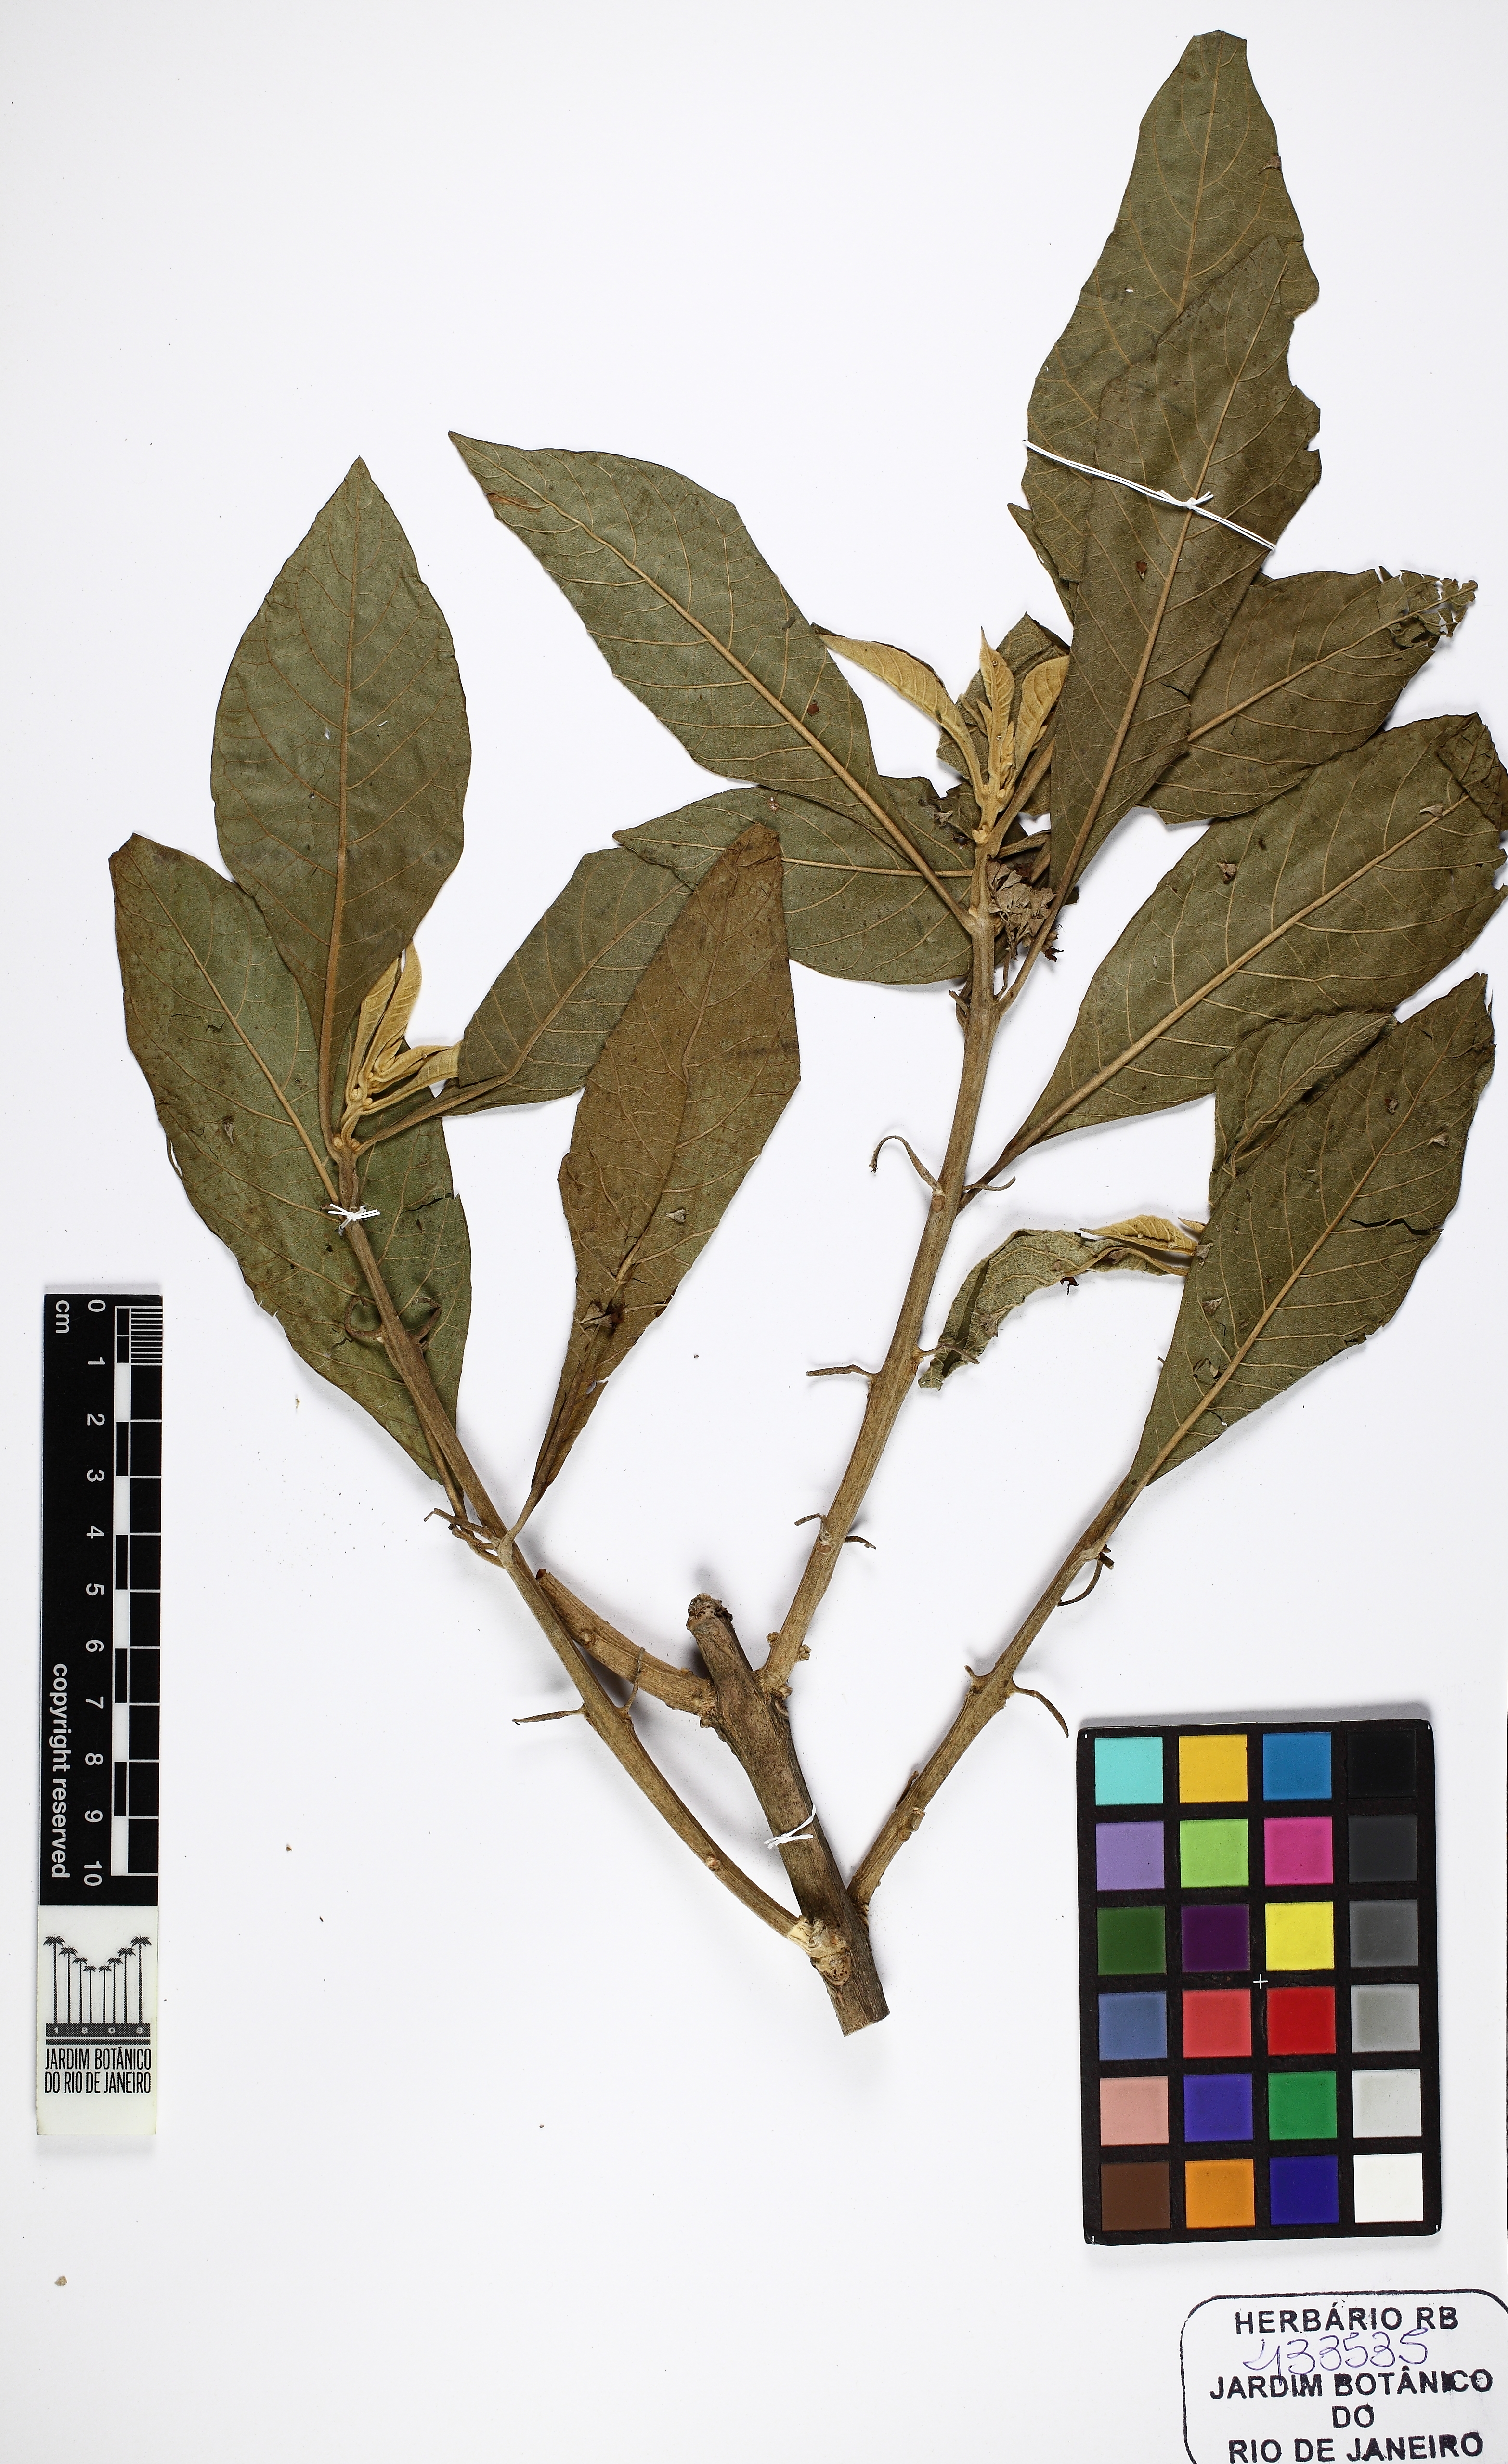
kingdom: Plantae
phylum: Tracheophyta
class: Magnoliopsida
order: Lamiales
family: Lamiaceae
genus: Aegiphila
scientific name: Aegiphila verticillata
